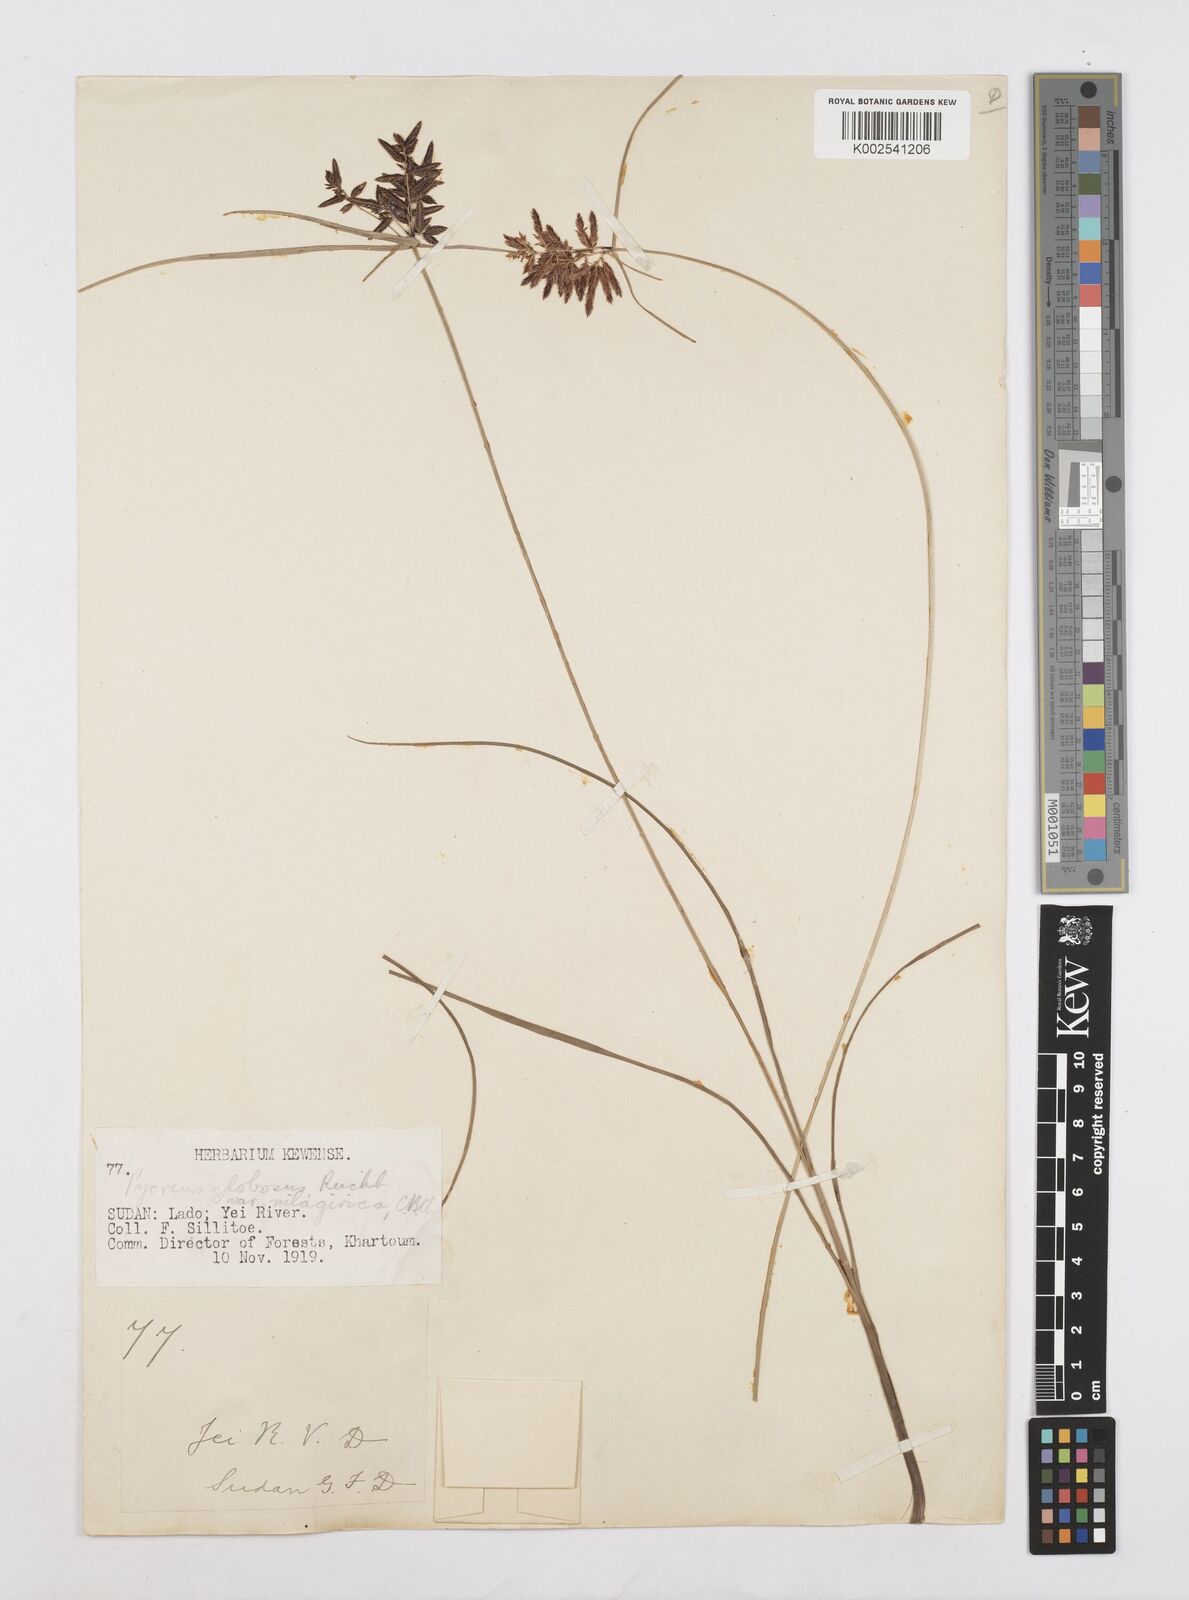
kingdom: Plantae
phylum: Tracheophyta
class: Liliopsida
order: Poales
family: Cyperaceae
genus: Cyperus
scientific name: Cyperus acuticarinatus
